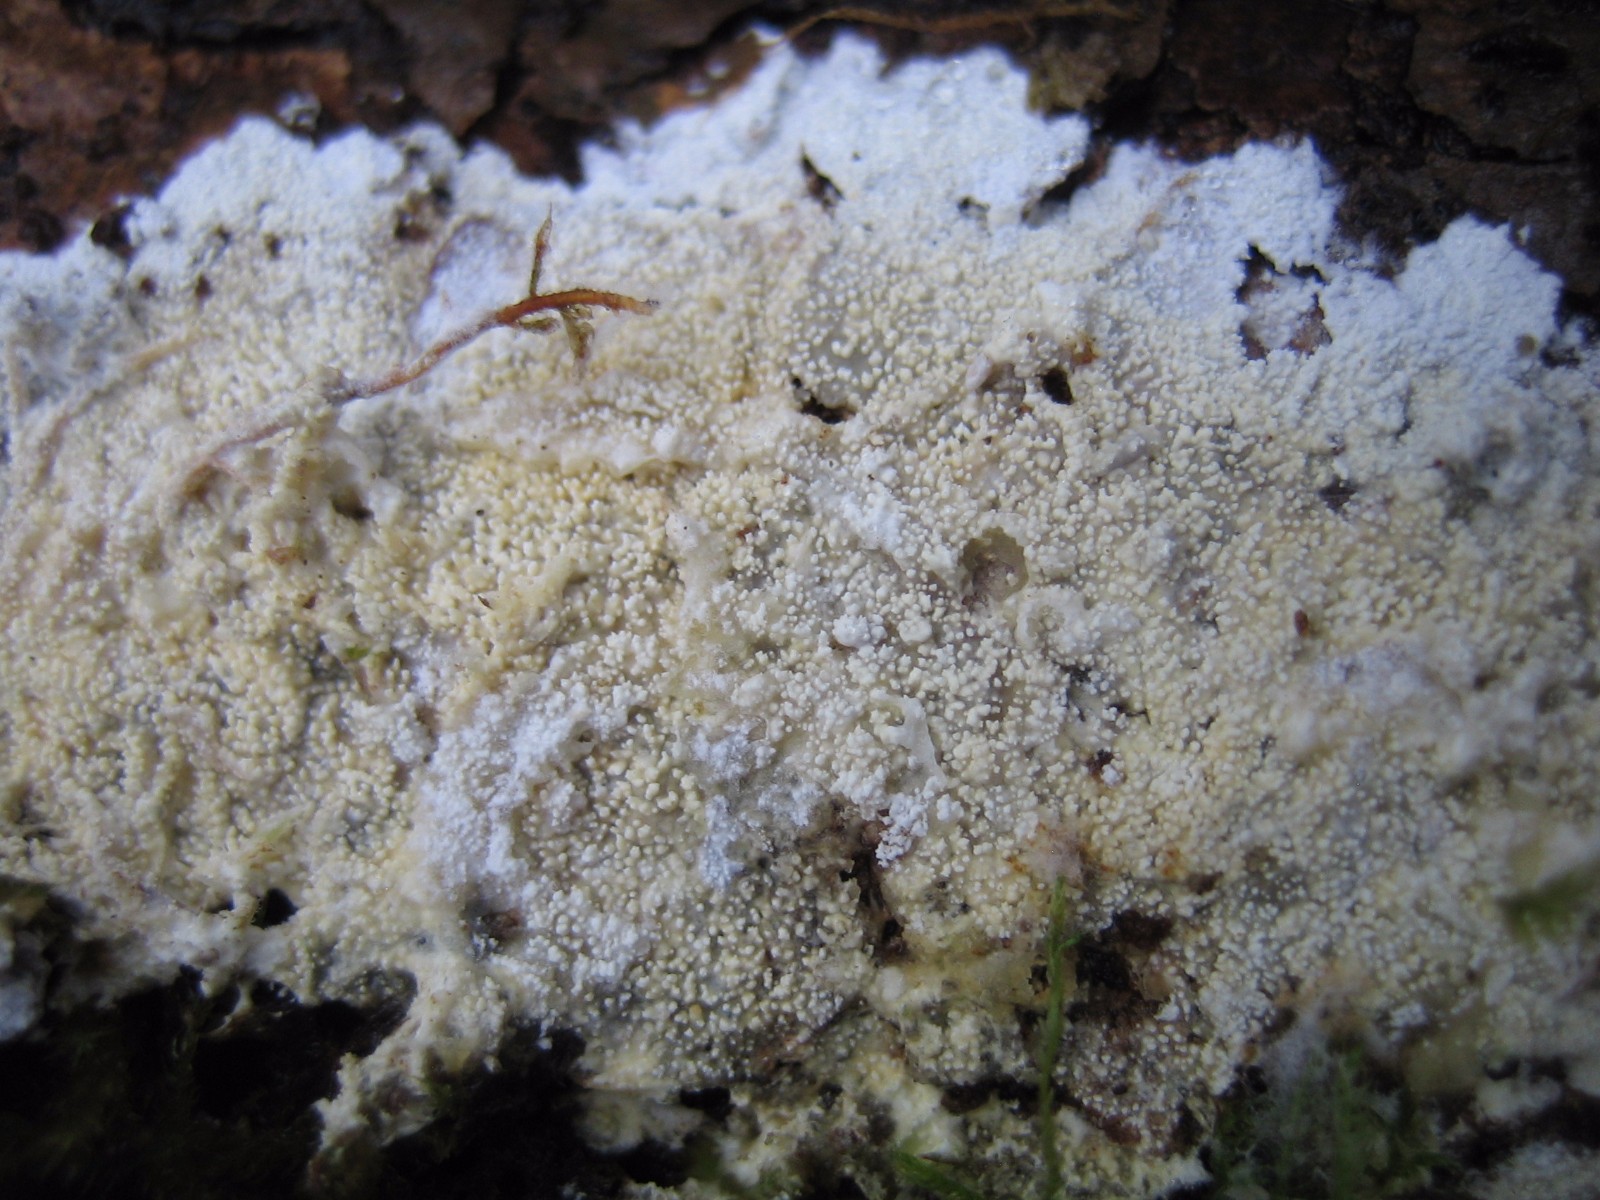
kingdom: Fungi
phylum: Basidiomycota
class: Agaricomycetes
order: Corticiales
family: Corticiaceae
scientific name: Corticiaceae
